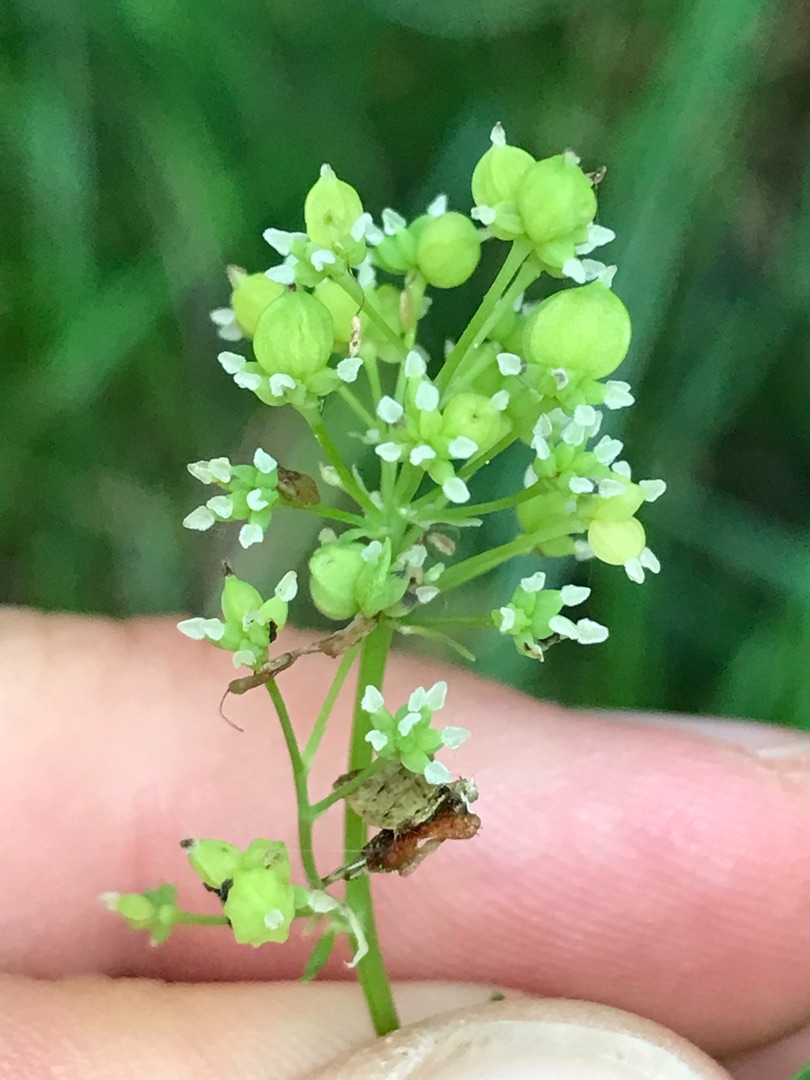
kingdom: Animalia
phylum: Arthropoda
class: Insecta
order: Diptera
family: Cecidomyiidae
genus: Ametrodiplosis
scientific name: Ametrodiplosis thalictricola
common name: Frøstjernegalmyg
